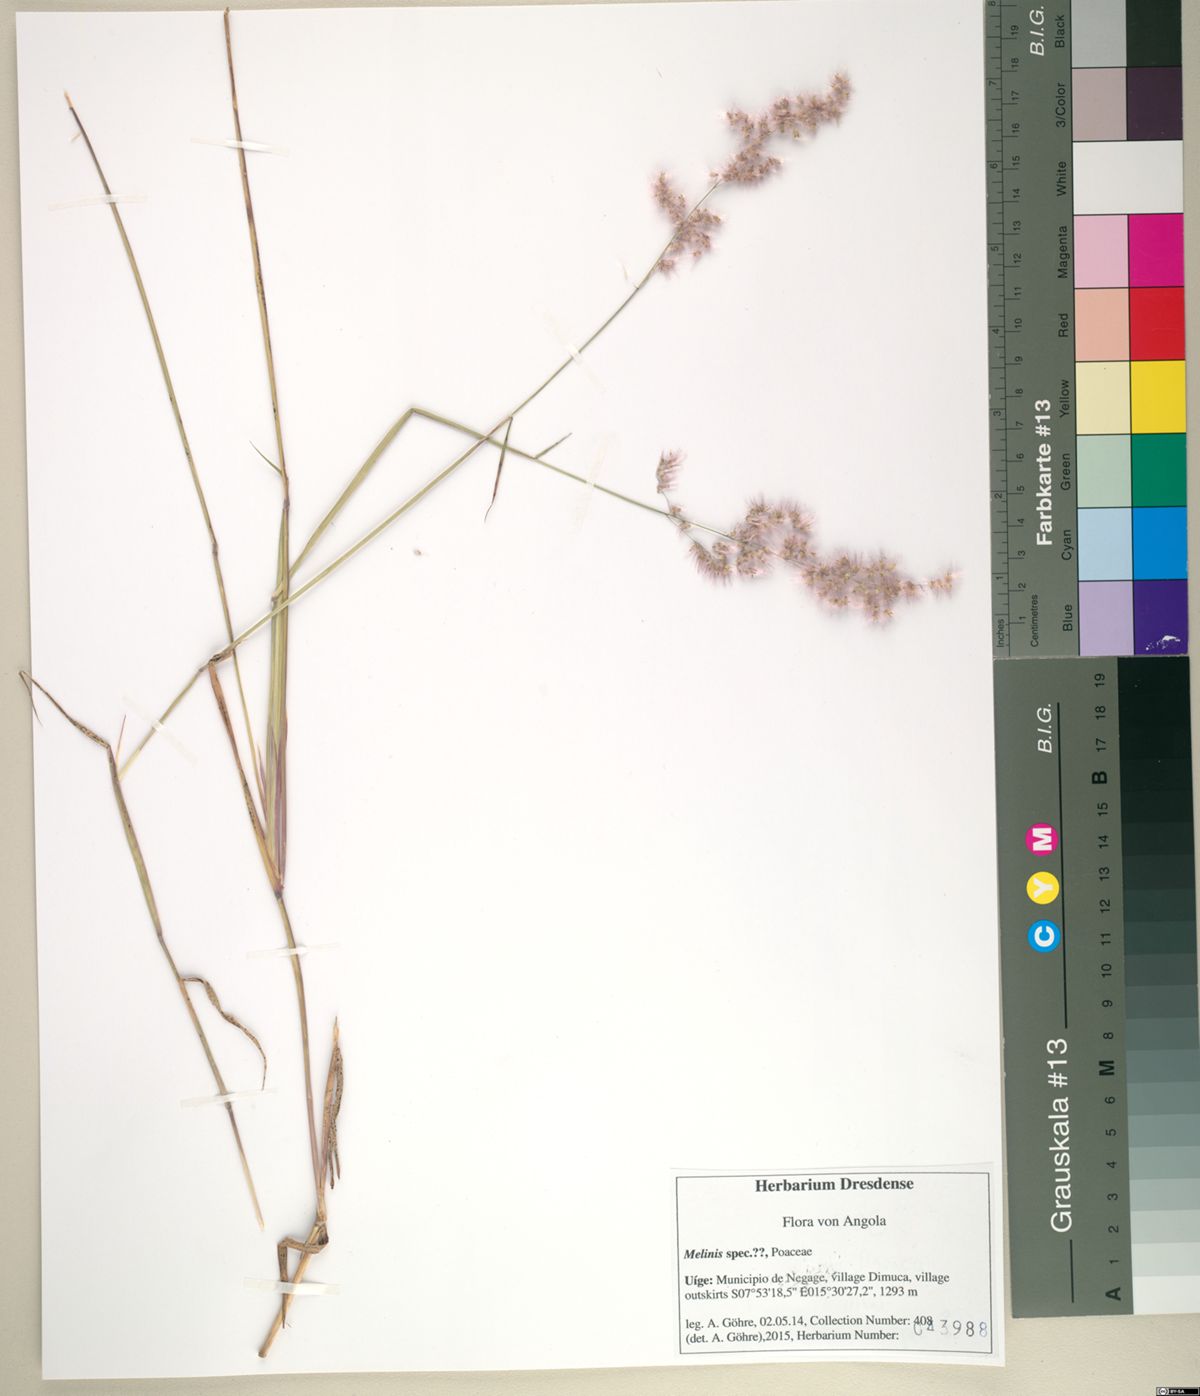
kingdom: Plantae
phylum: Tracheophyta
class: Liliopsida
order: Poales
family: Poaceae
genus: Melinis
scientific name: Melinis repens
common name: Rose natal grass
